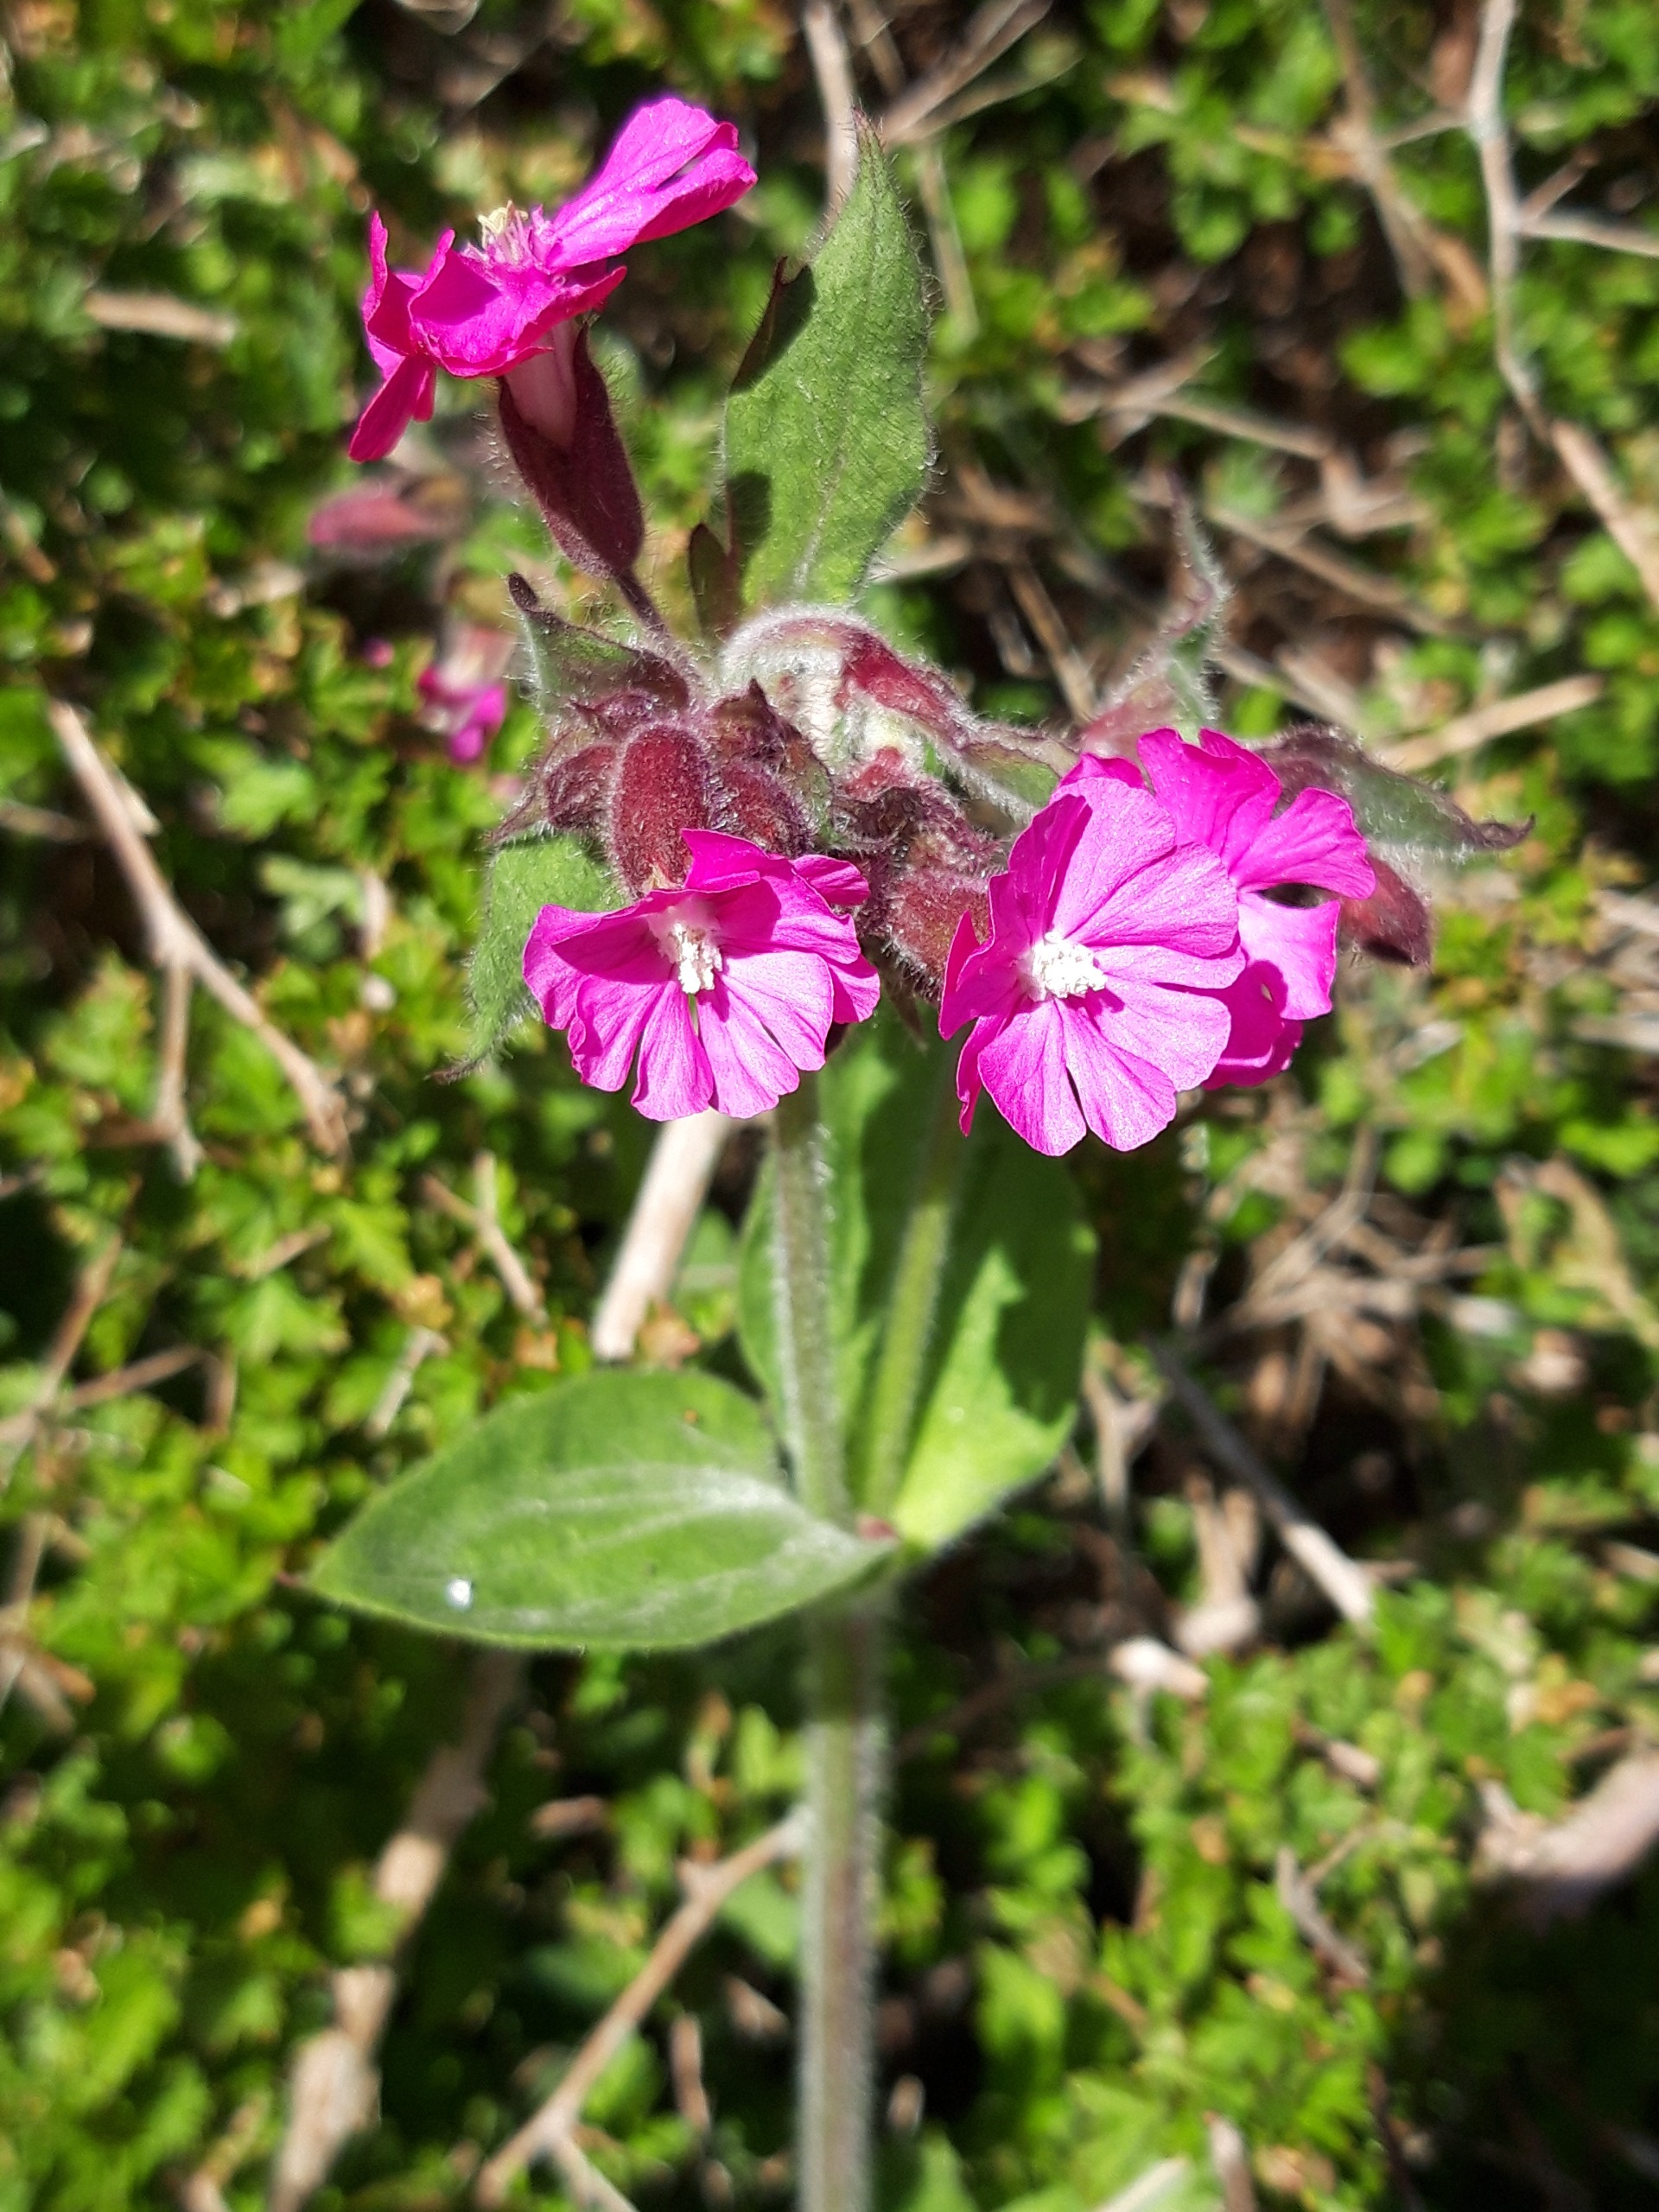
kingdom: Plantae
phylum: Tracheophyta
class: Magnoliopsida
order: Caryophyllales
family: Caryophyllaceae
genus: Silene
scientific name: Silene dioica
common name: Dagpragtstjerne
